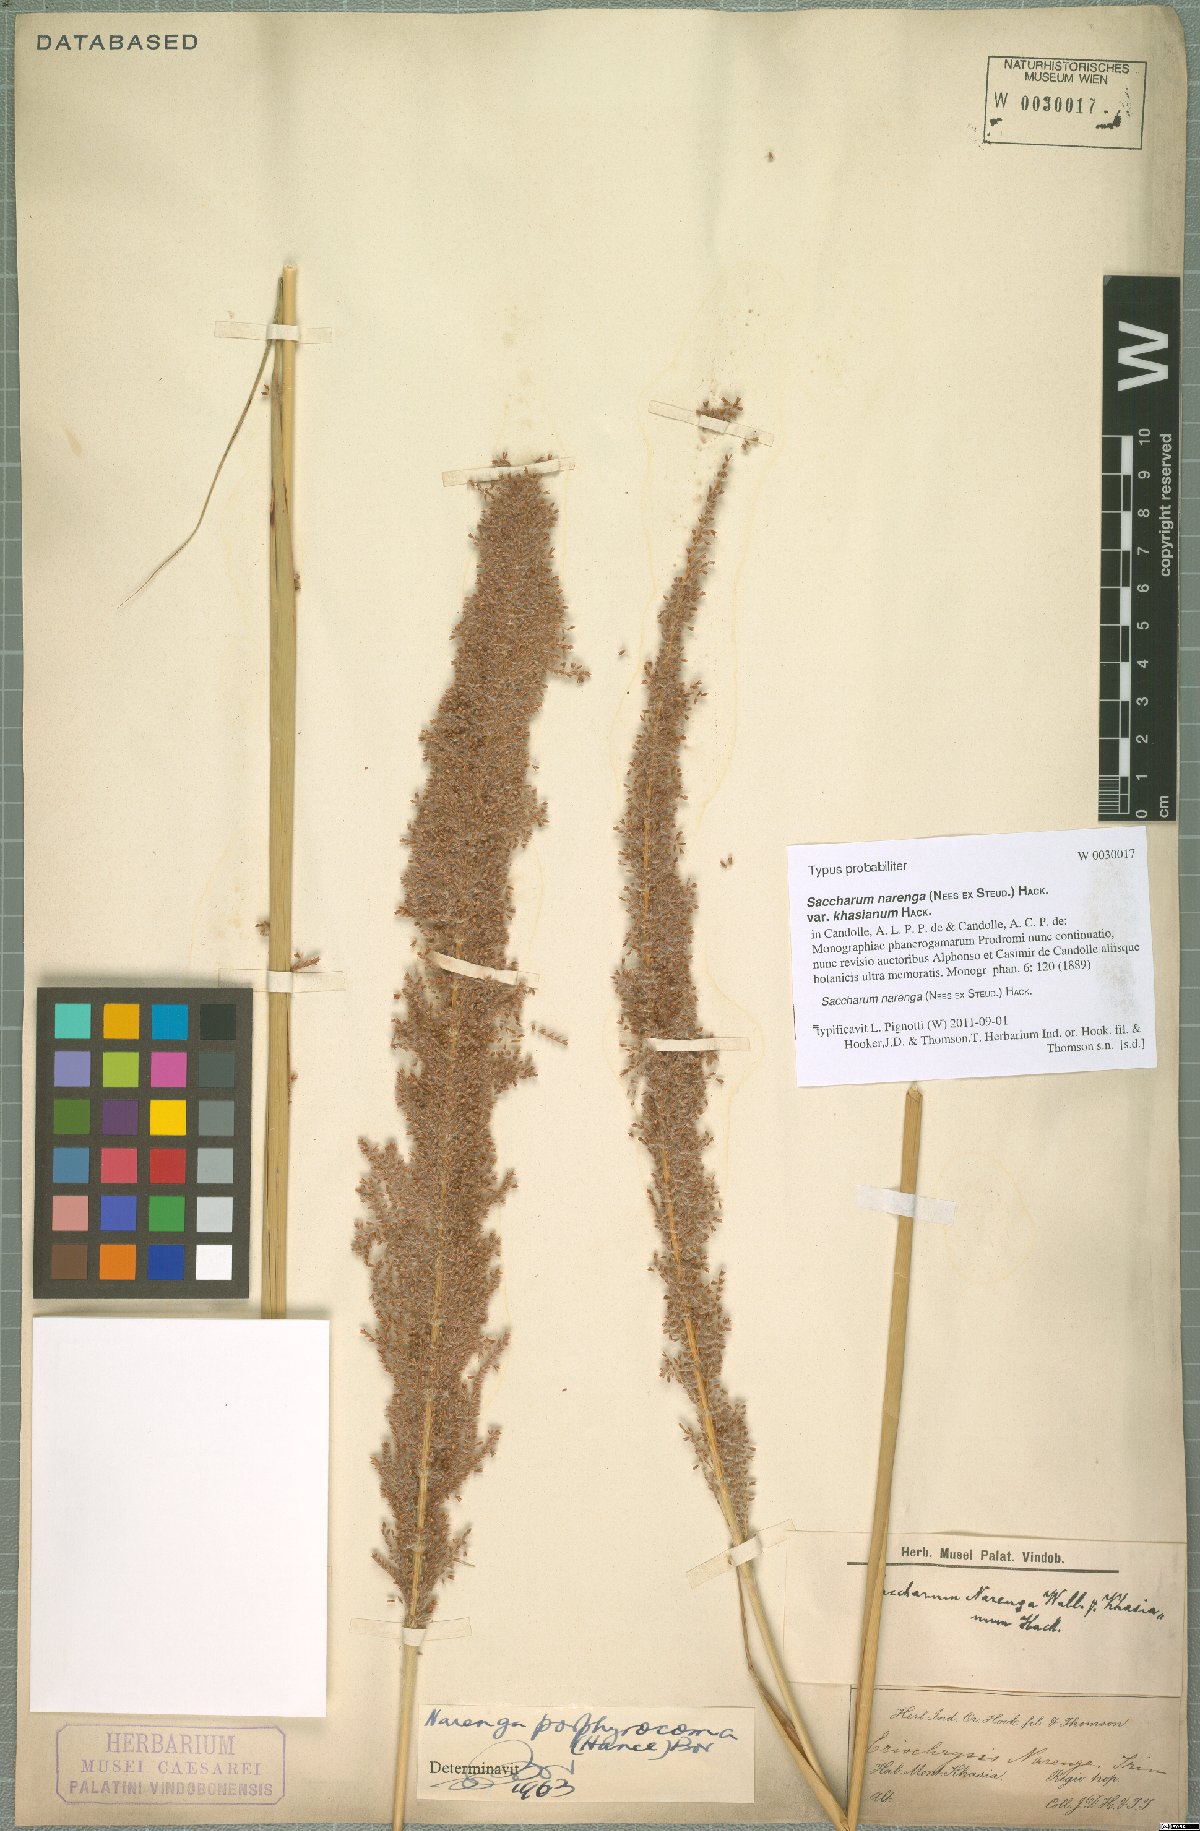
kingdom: Plantae
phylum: Tracheophyta
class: Liliopsida
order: Poales
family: Poaceae
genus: Narenga
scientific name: Narenga porphyrocoma
